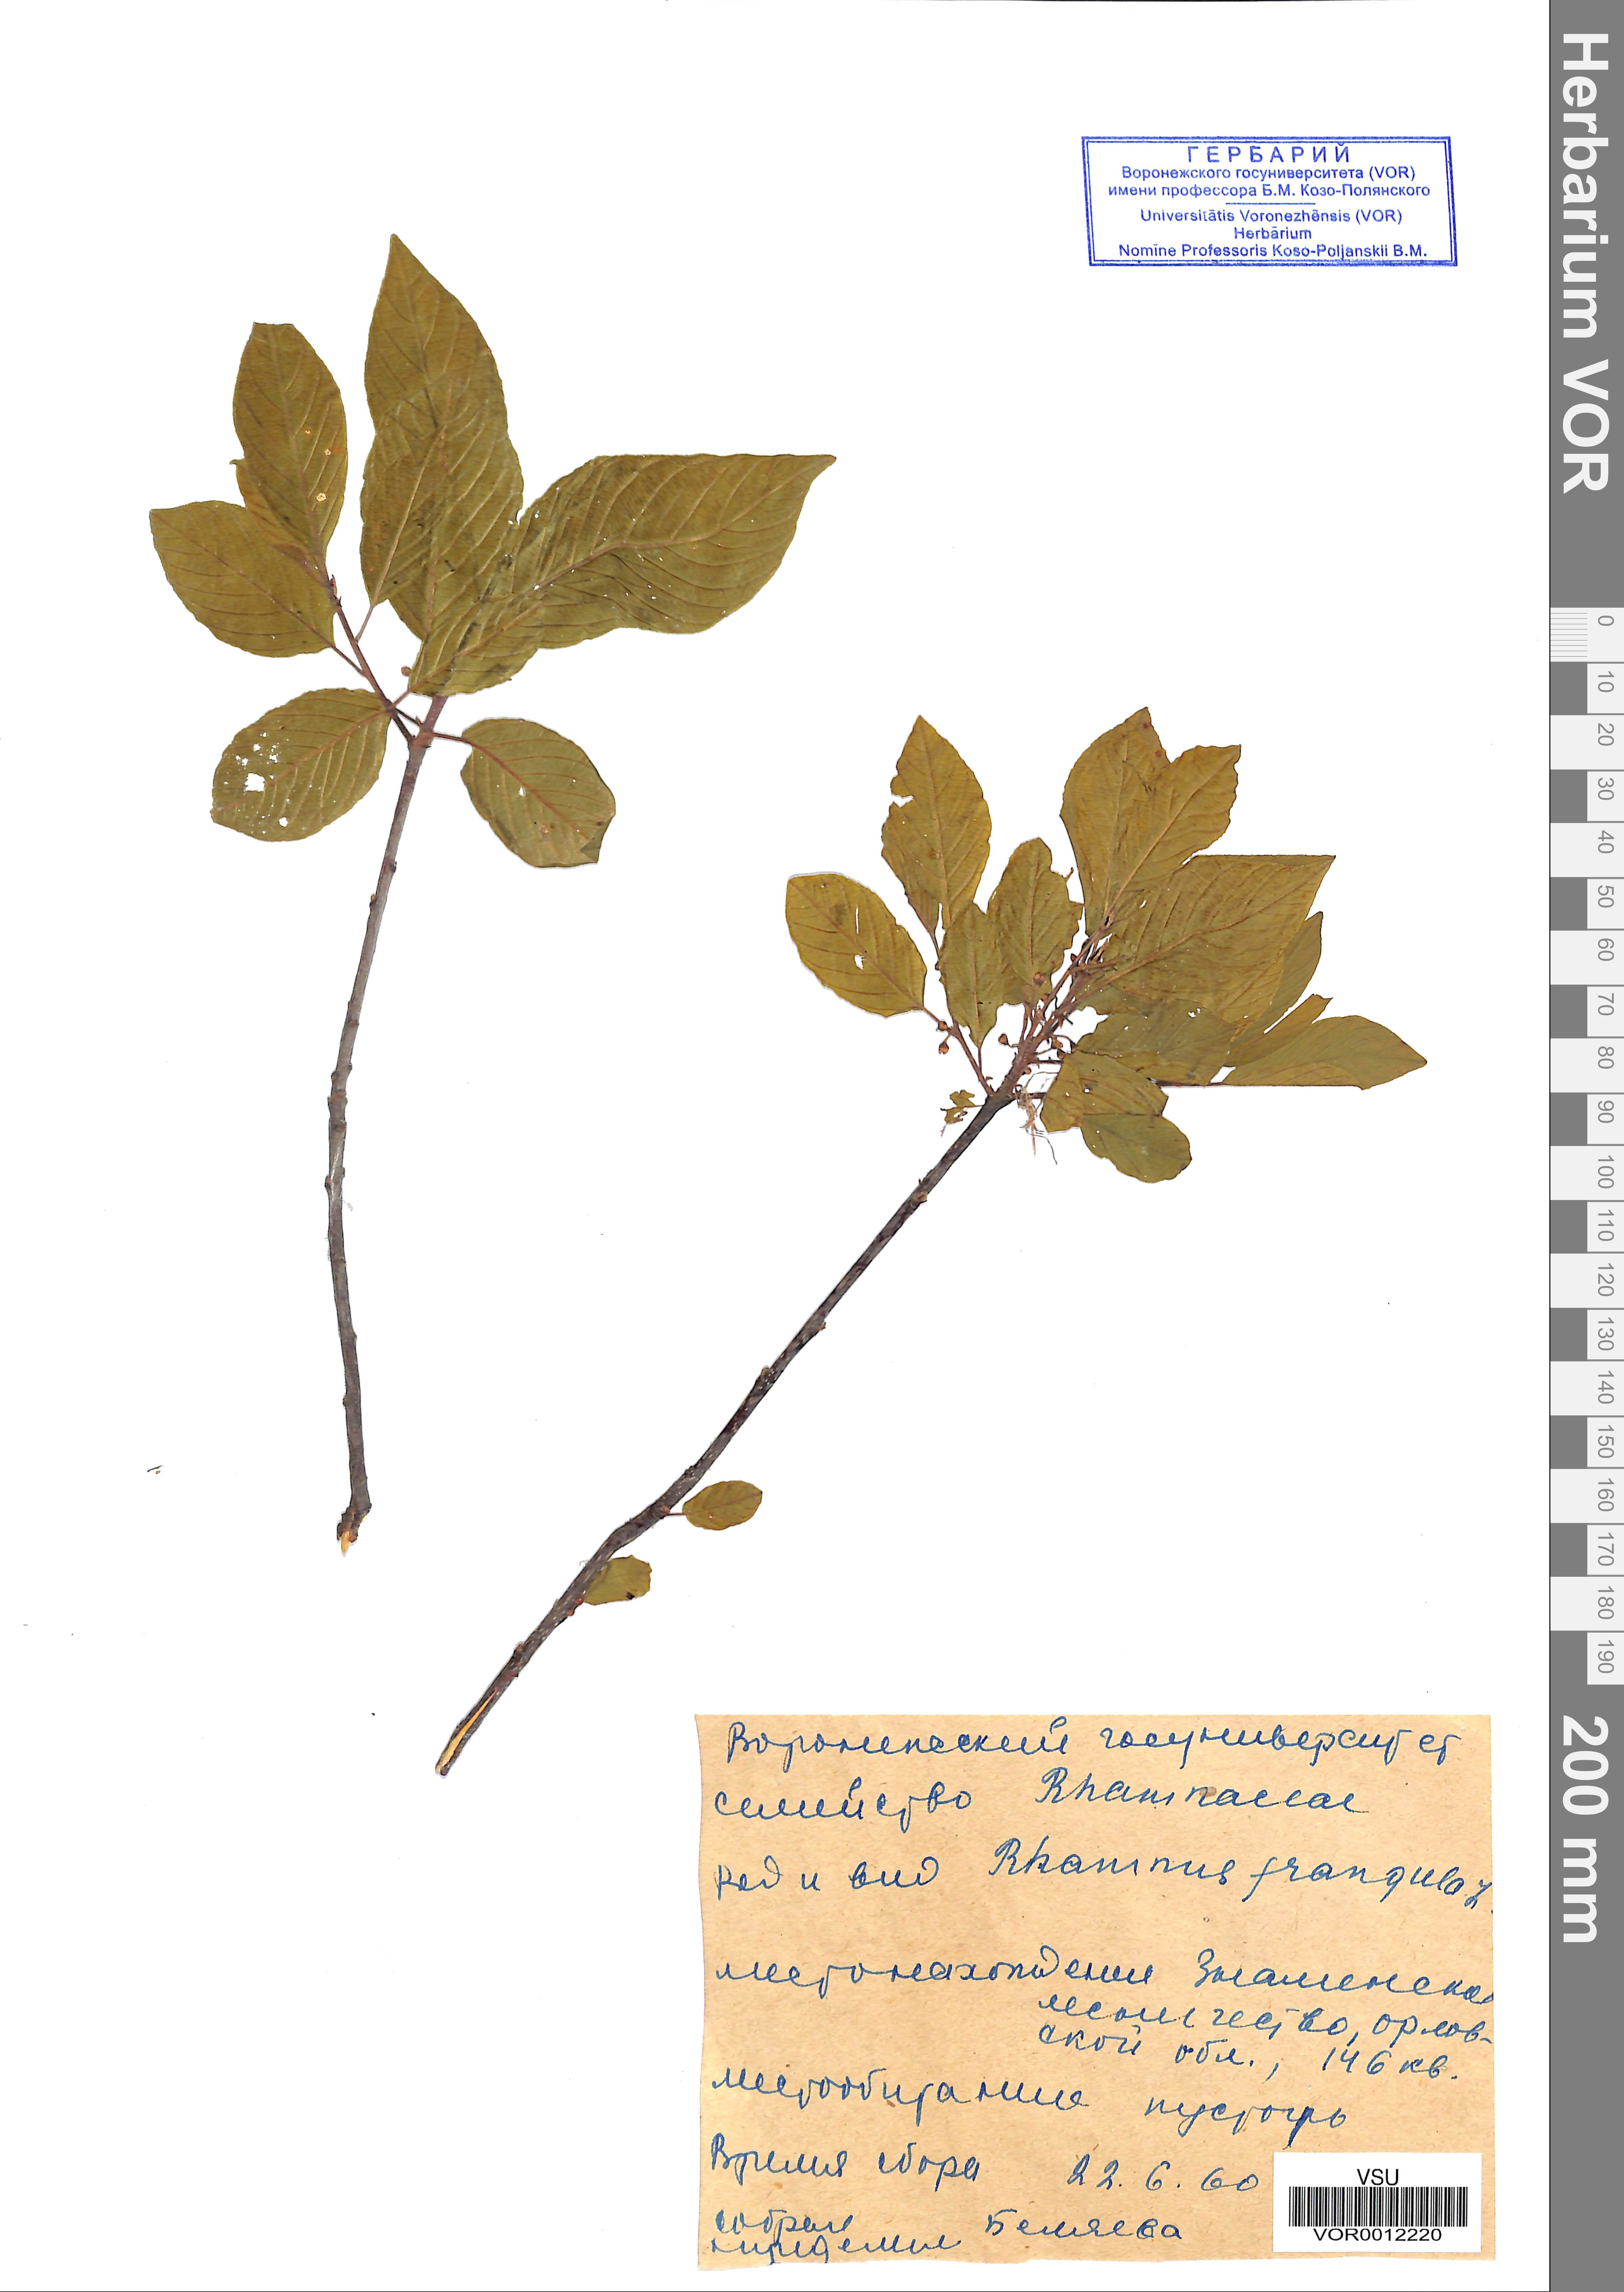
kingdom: Plantae
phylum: Tracheophyta
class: Magnoliopsida
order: Rosales
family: Rhamnaceae
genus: Frangula
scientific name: Frangula alnus
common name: Alder buckthorn
